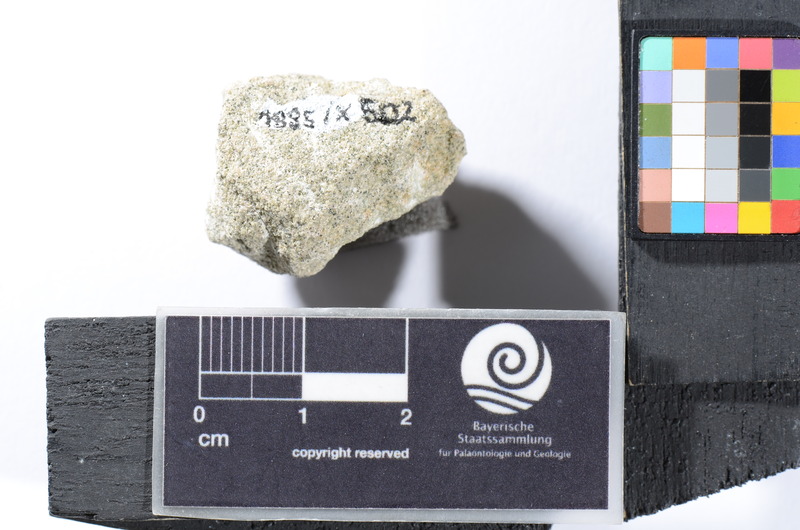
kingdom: Animalia
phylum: Chordata
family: Pycnodontidae
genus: Anomoeodus
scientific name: Anomoeodus
